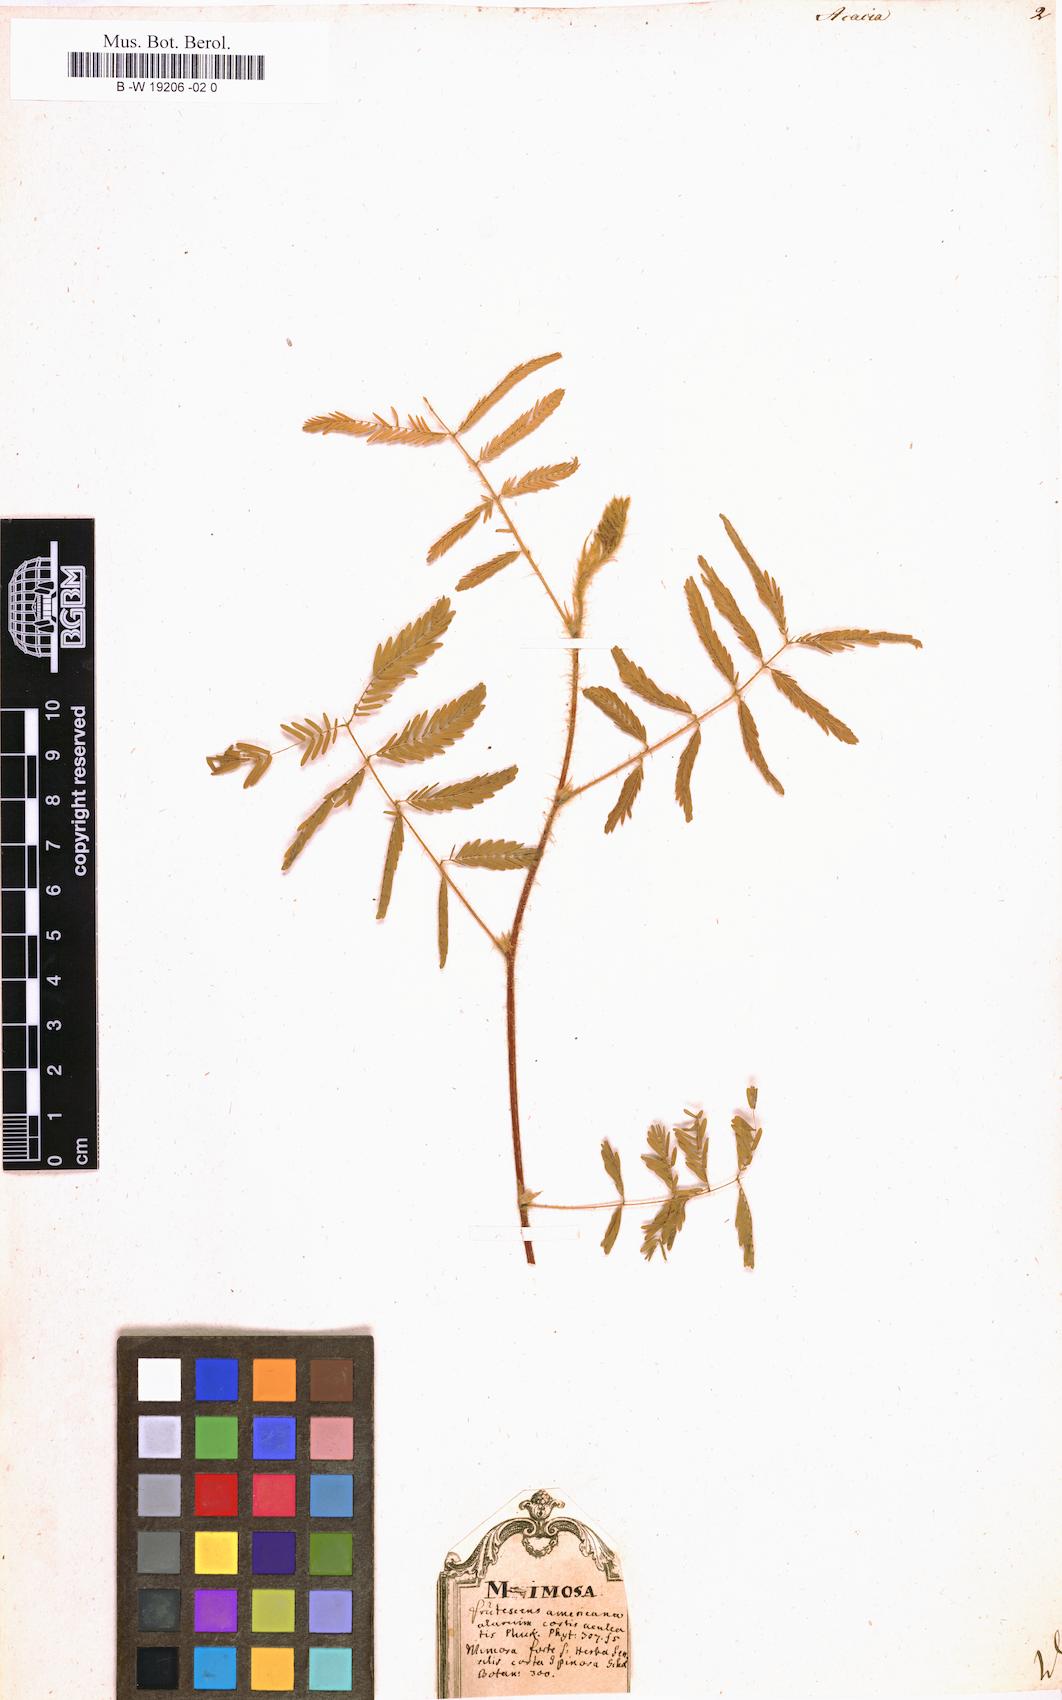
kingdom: Plantae
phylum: Tracheophyta
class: Magnoliopsida
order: Fabales
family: Fabaceae
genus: Acacia
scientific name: Acacia
